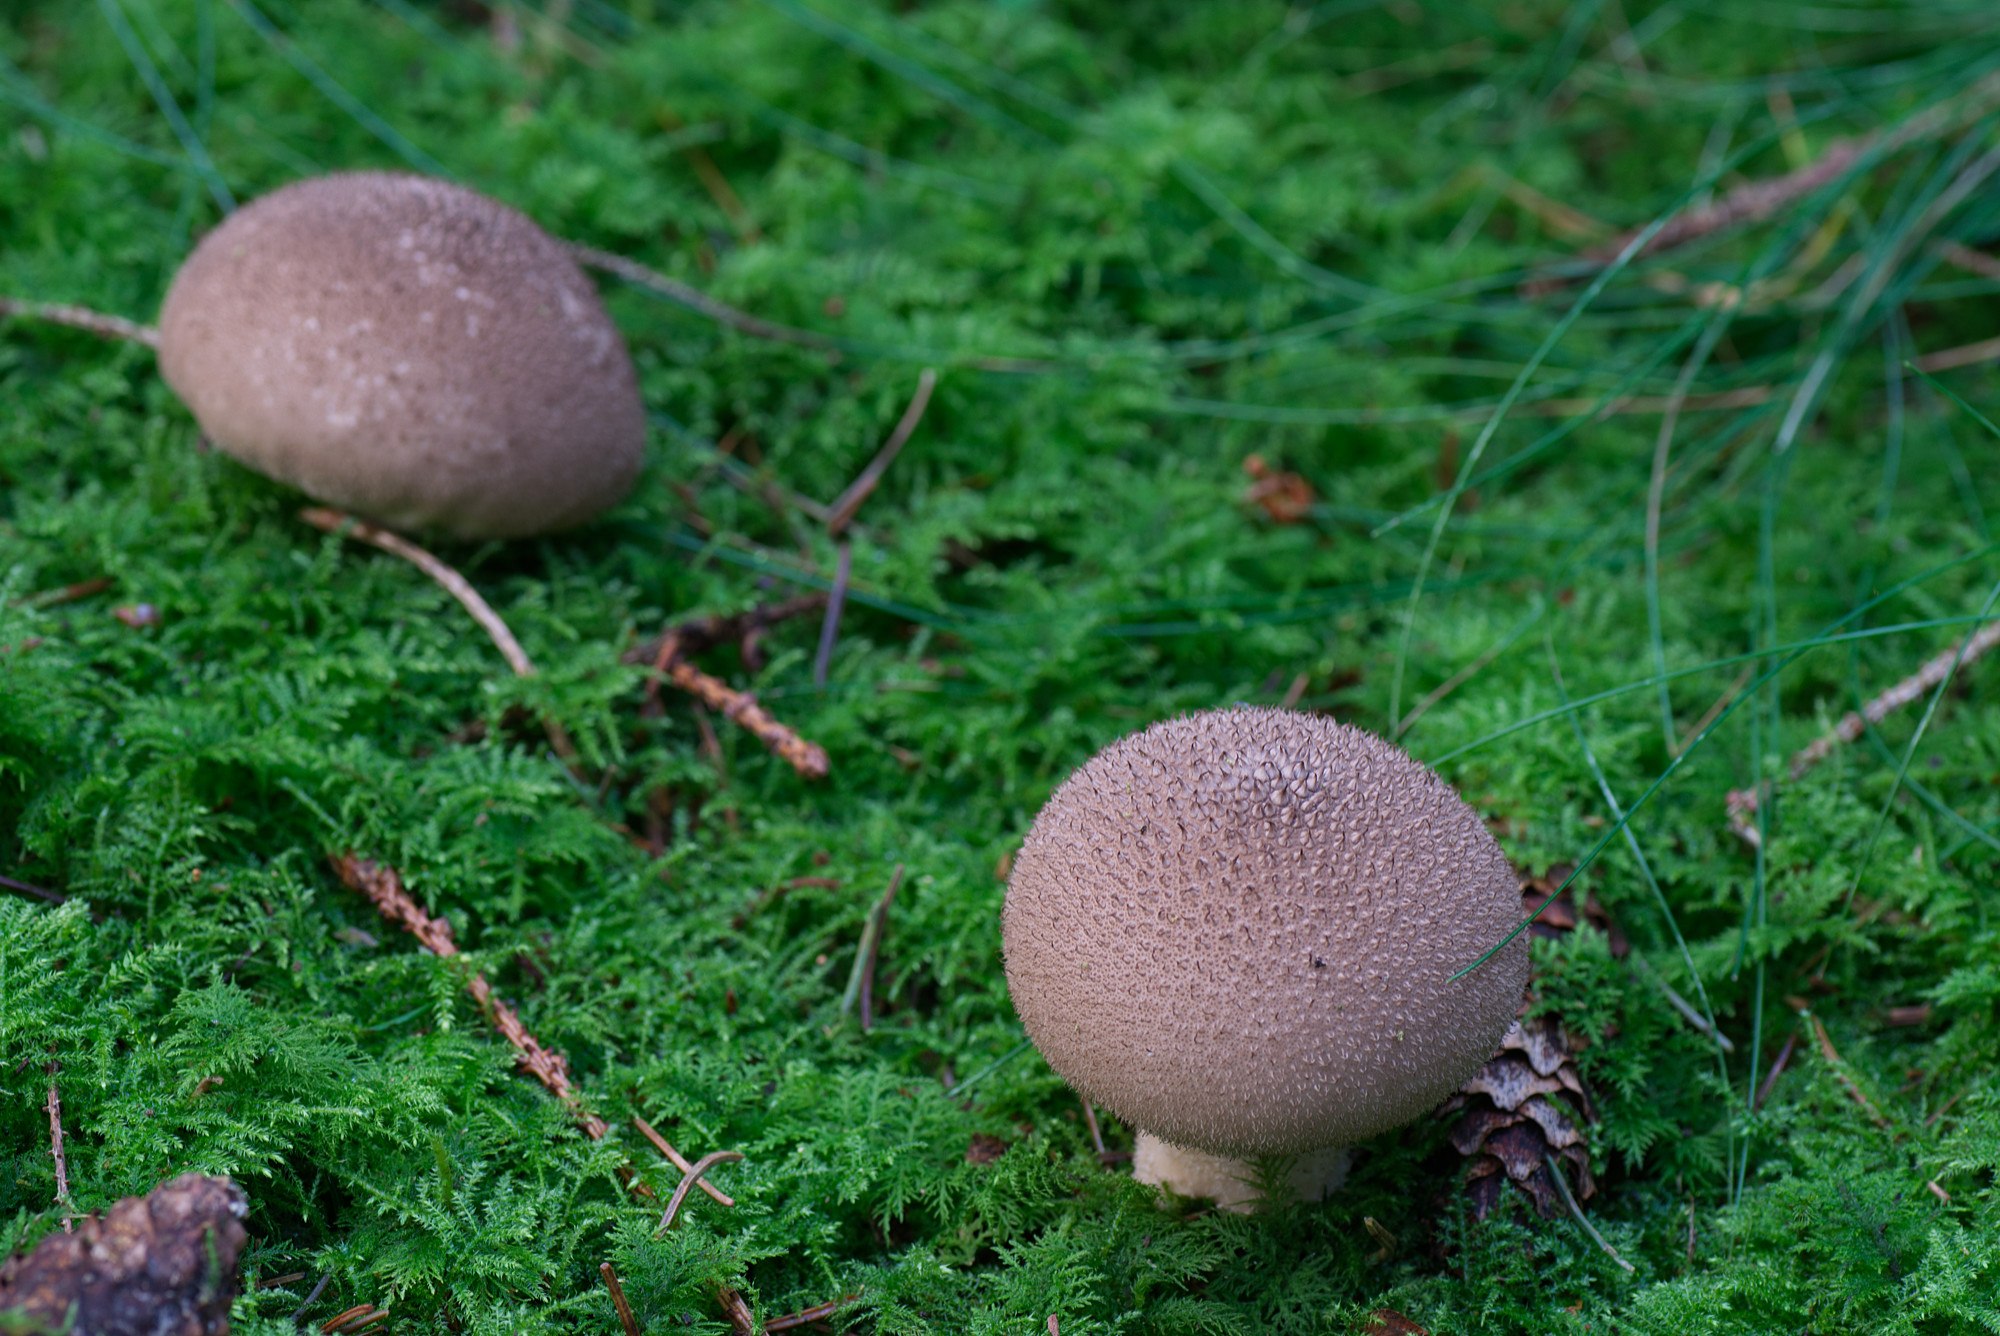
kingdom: Fungi
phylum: Basidiomycota
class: Agaricomycetes
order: Agaricales
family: Lycoperdaceae
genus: Lycoperdon
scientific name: Lycoperdon nigrescens
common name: sortagtig støvbold
